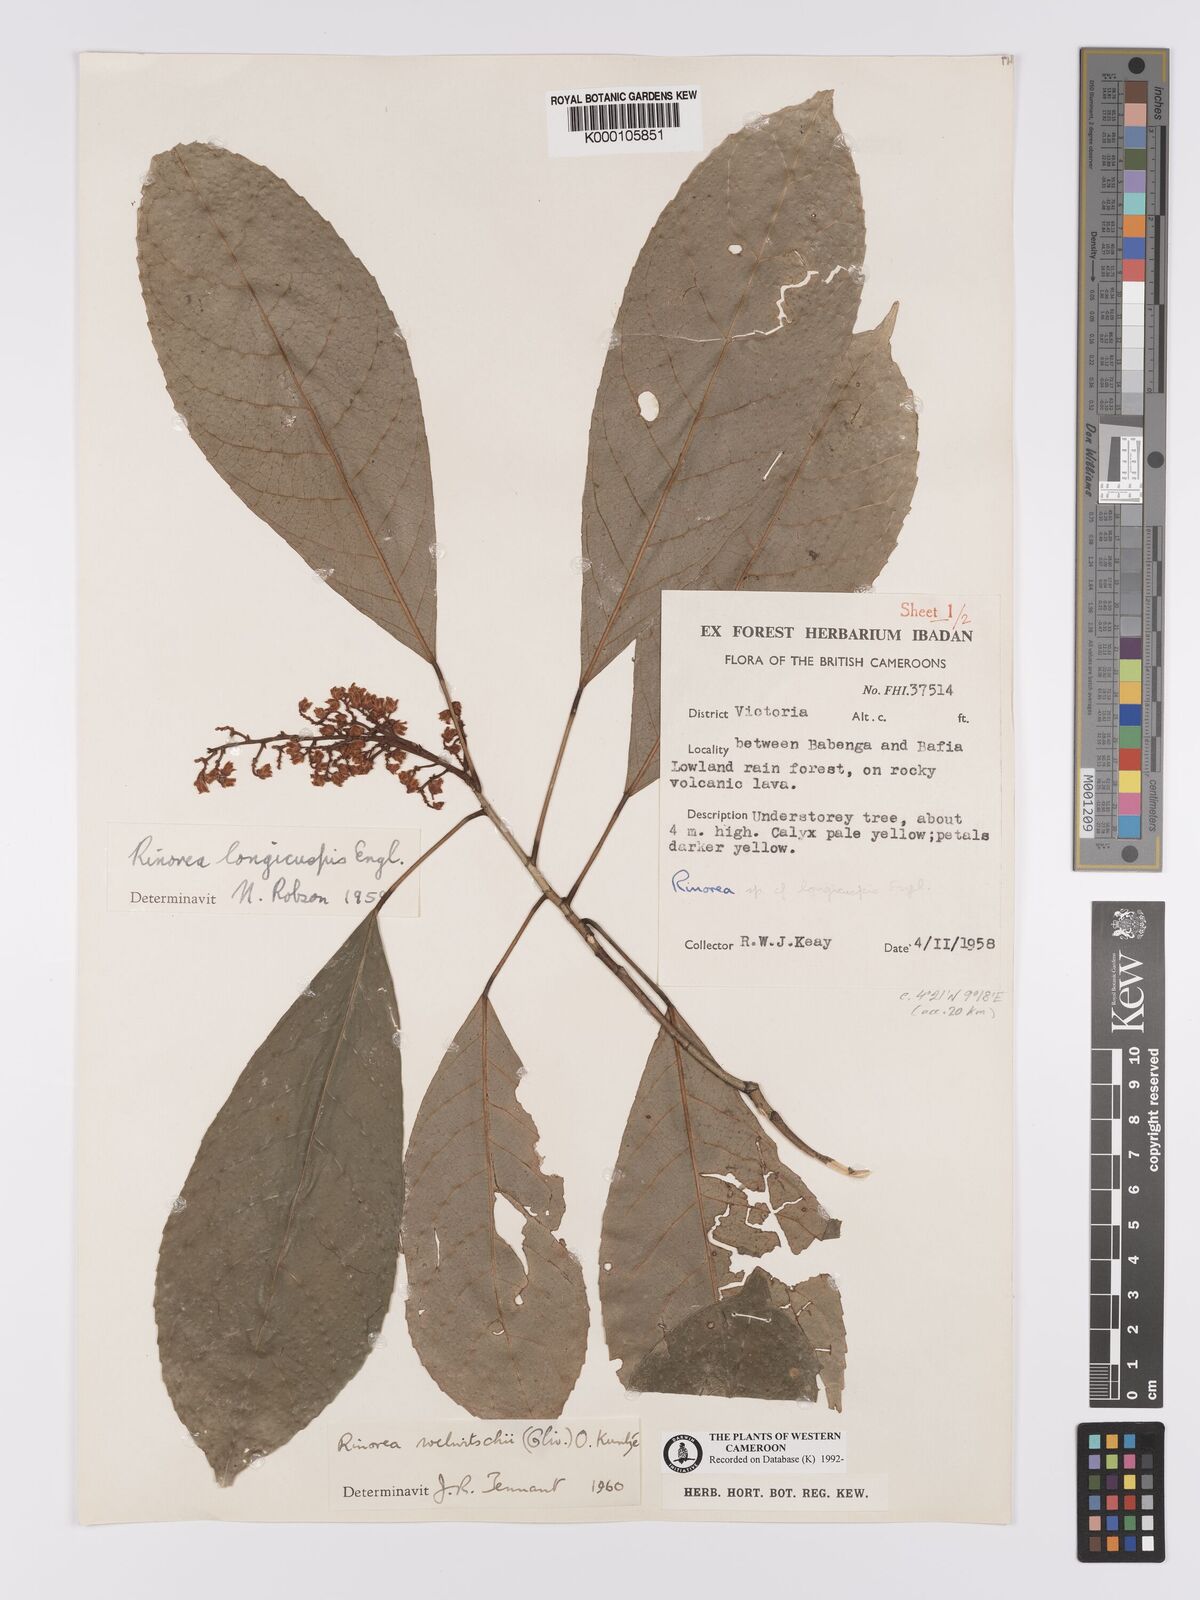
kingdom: Plantae
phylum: Tracheophyta
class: Magnoliopsida
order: Malpighiales
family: Violaceae
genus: Rinorea
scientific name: Rinorea welwitschii
